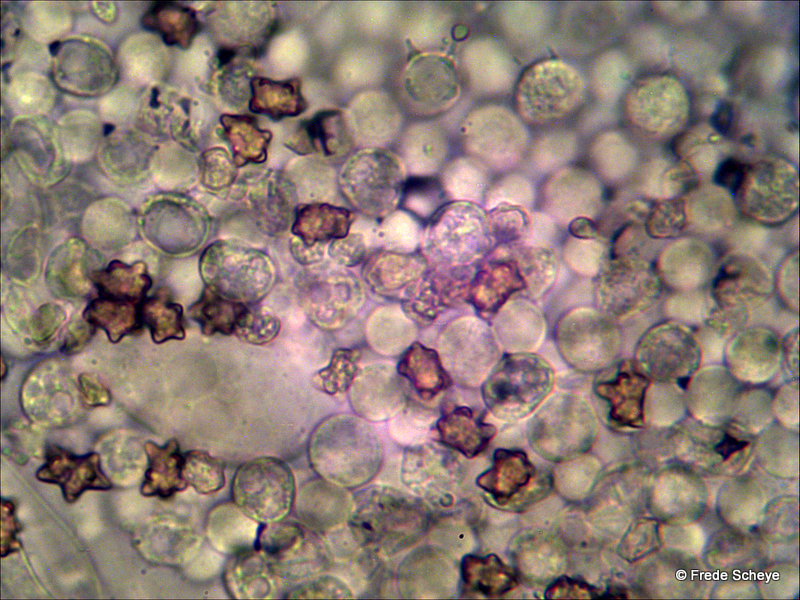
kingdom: Fungi
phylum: Basidiomycota
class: Agaricomycetes
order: Agaricales
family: Inocybaceae
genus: Inocybe
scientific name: Inocybe napipes
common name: roeknoldet trævlhat
